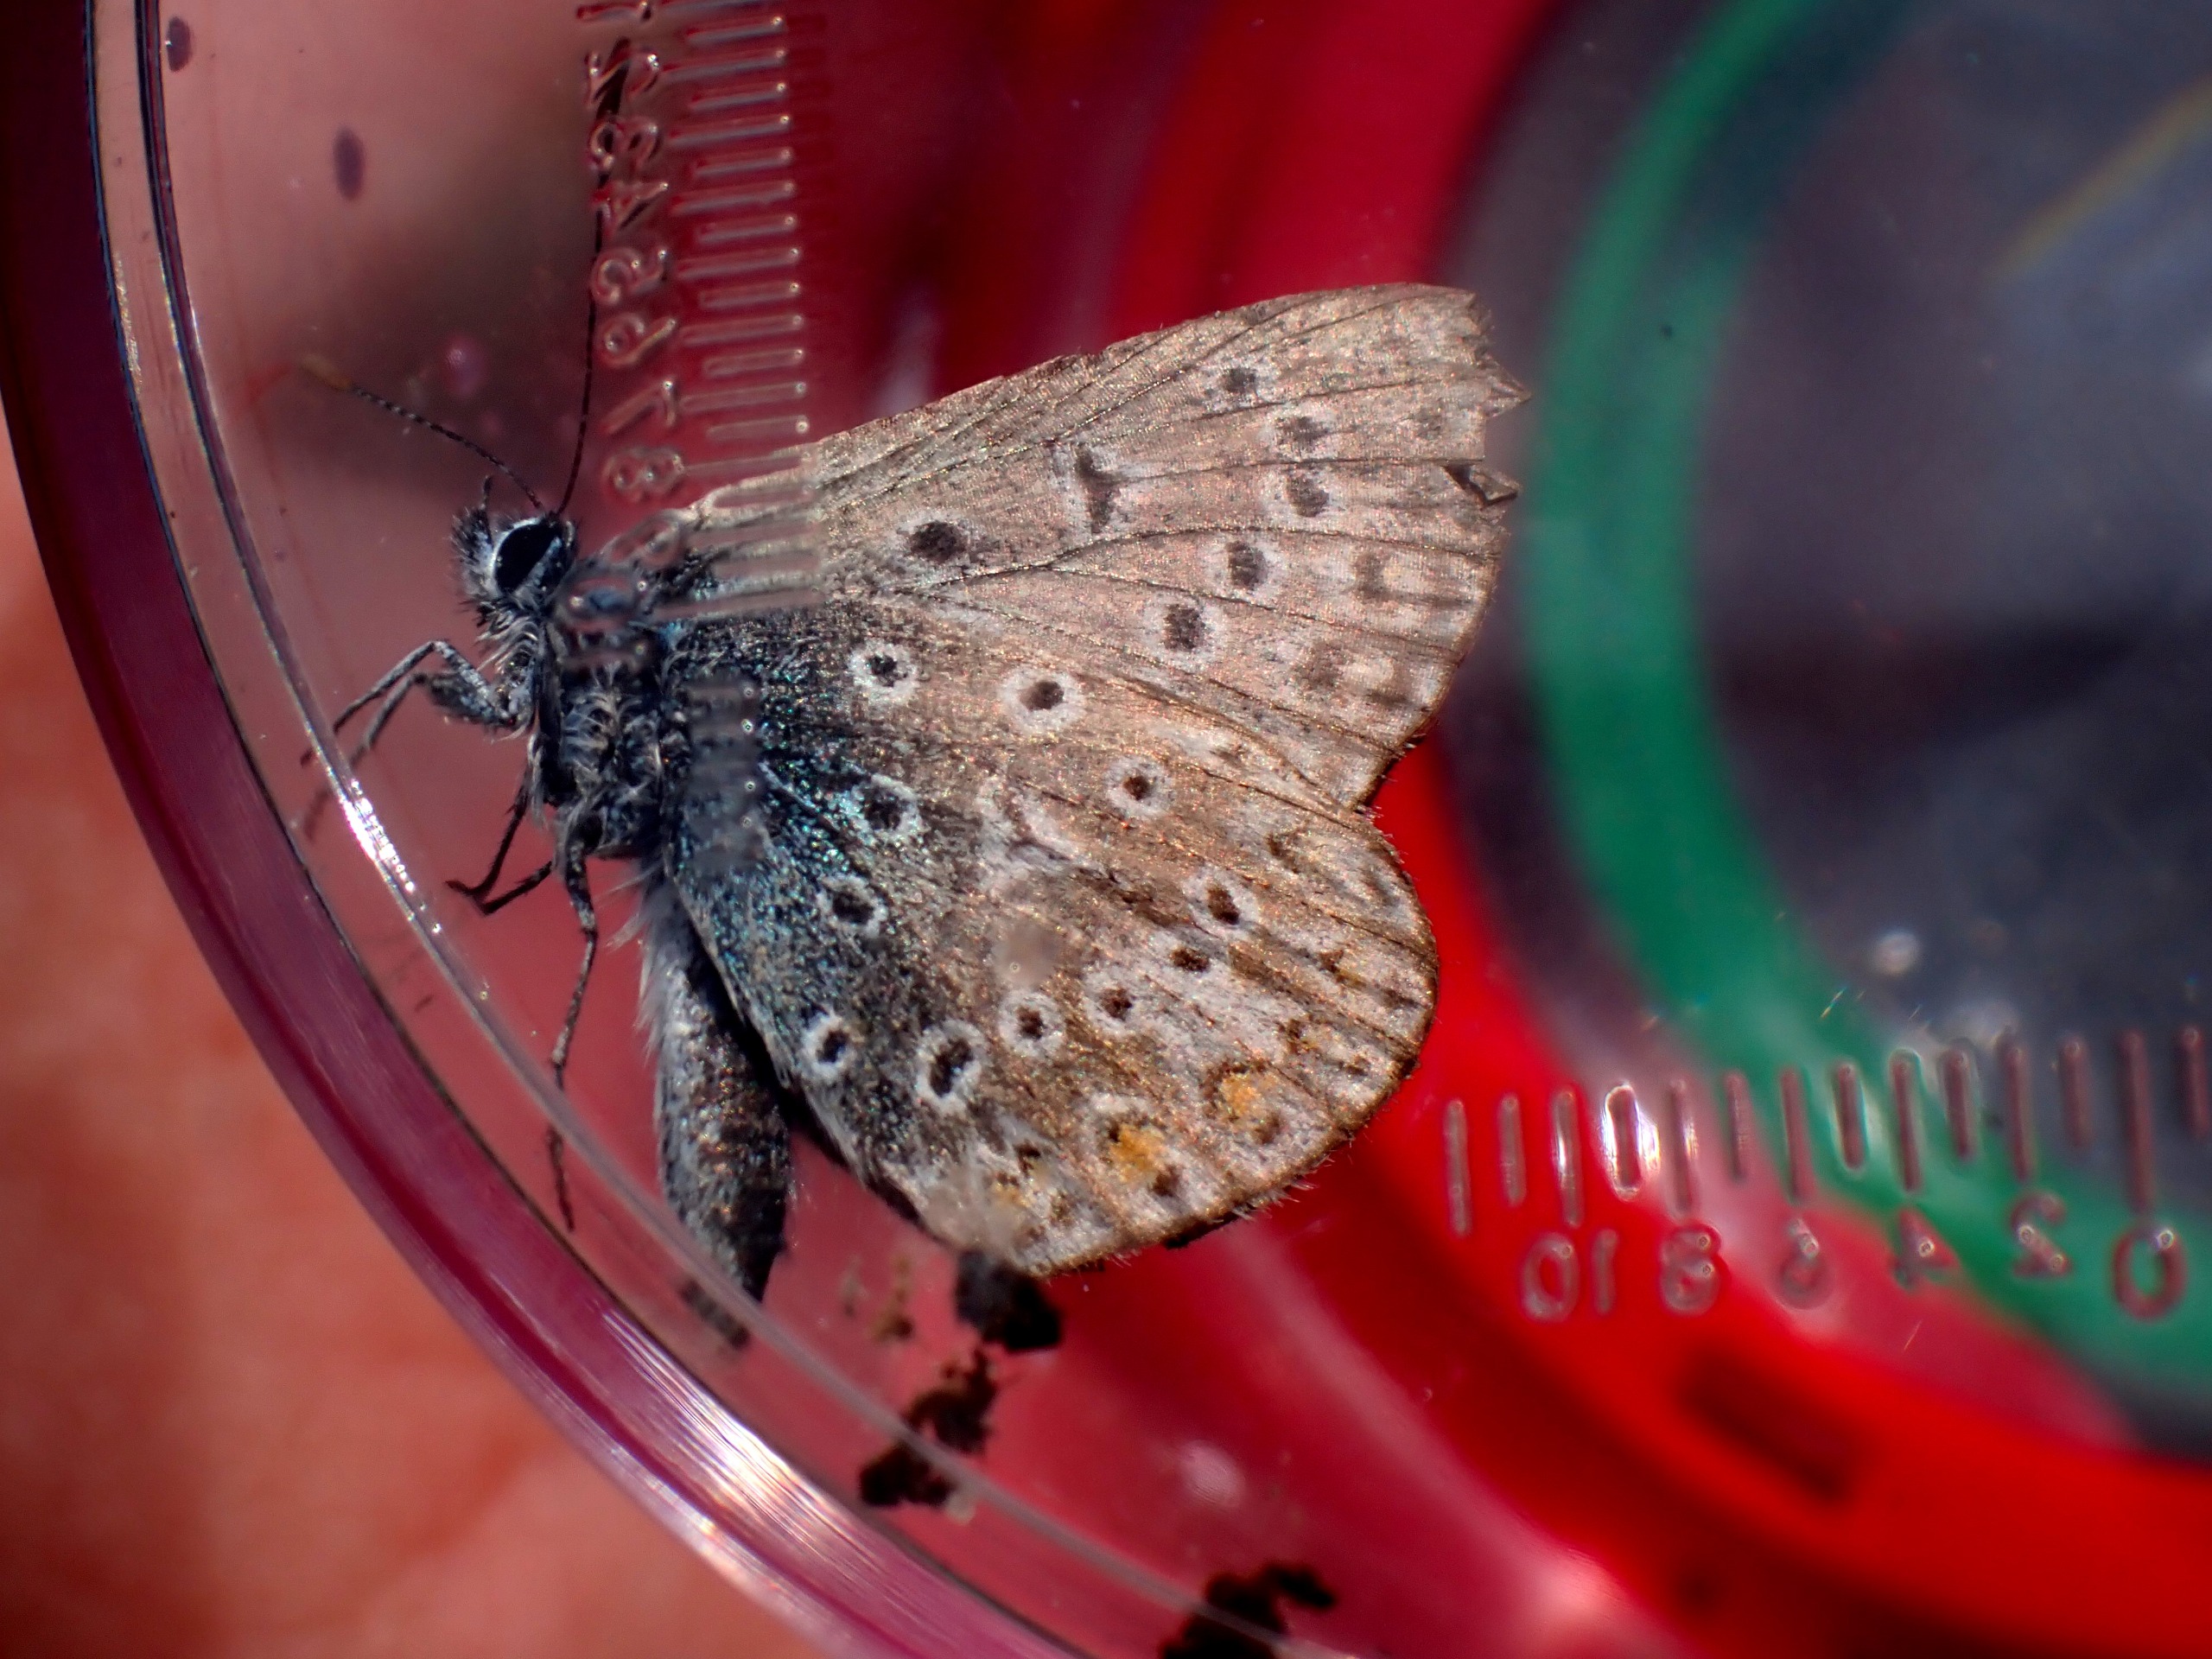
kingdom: Animalia
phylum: Arthropoda
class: Insecta
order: Lepidoptera
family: Lycaenidae
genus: Polyommatus
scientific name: Polyommatus icarus
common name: Almindelig blåfugl
